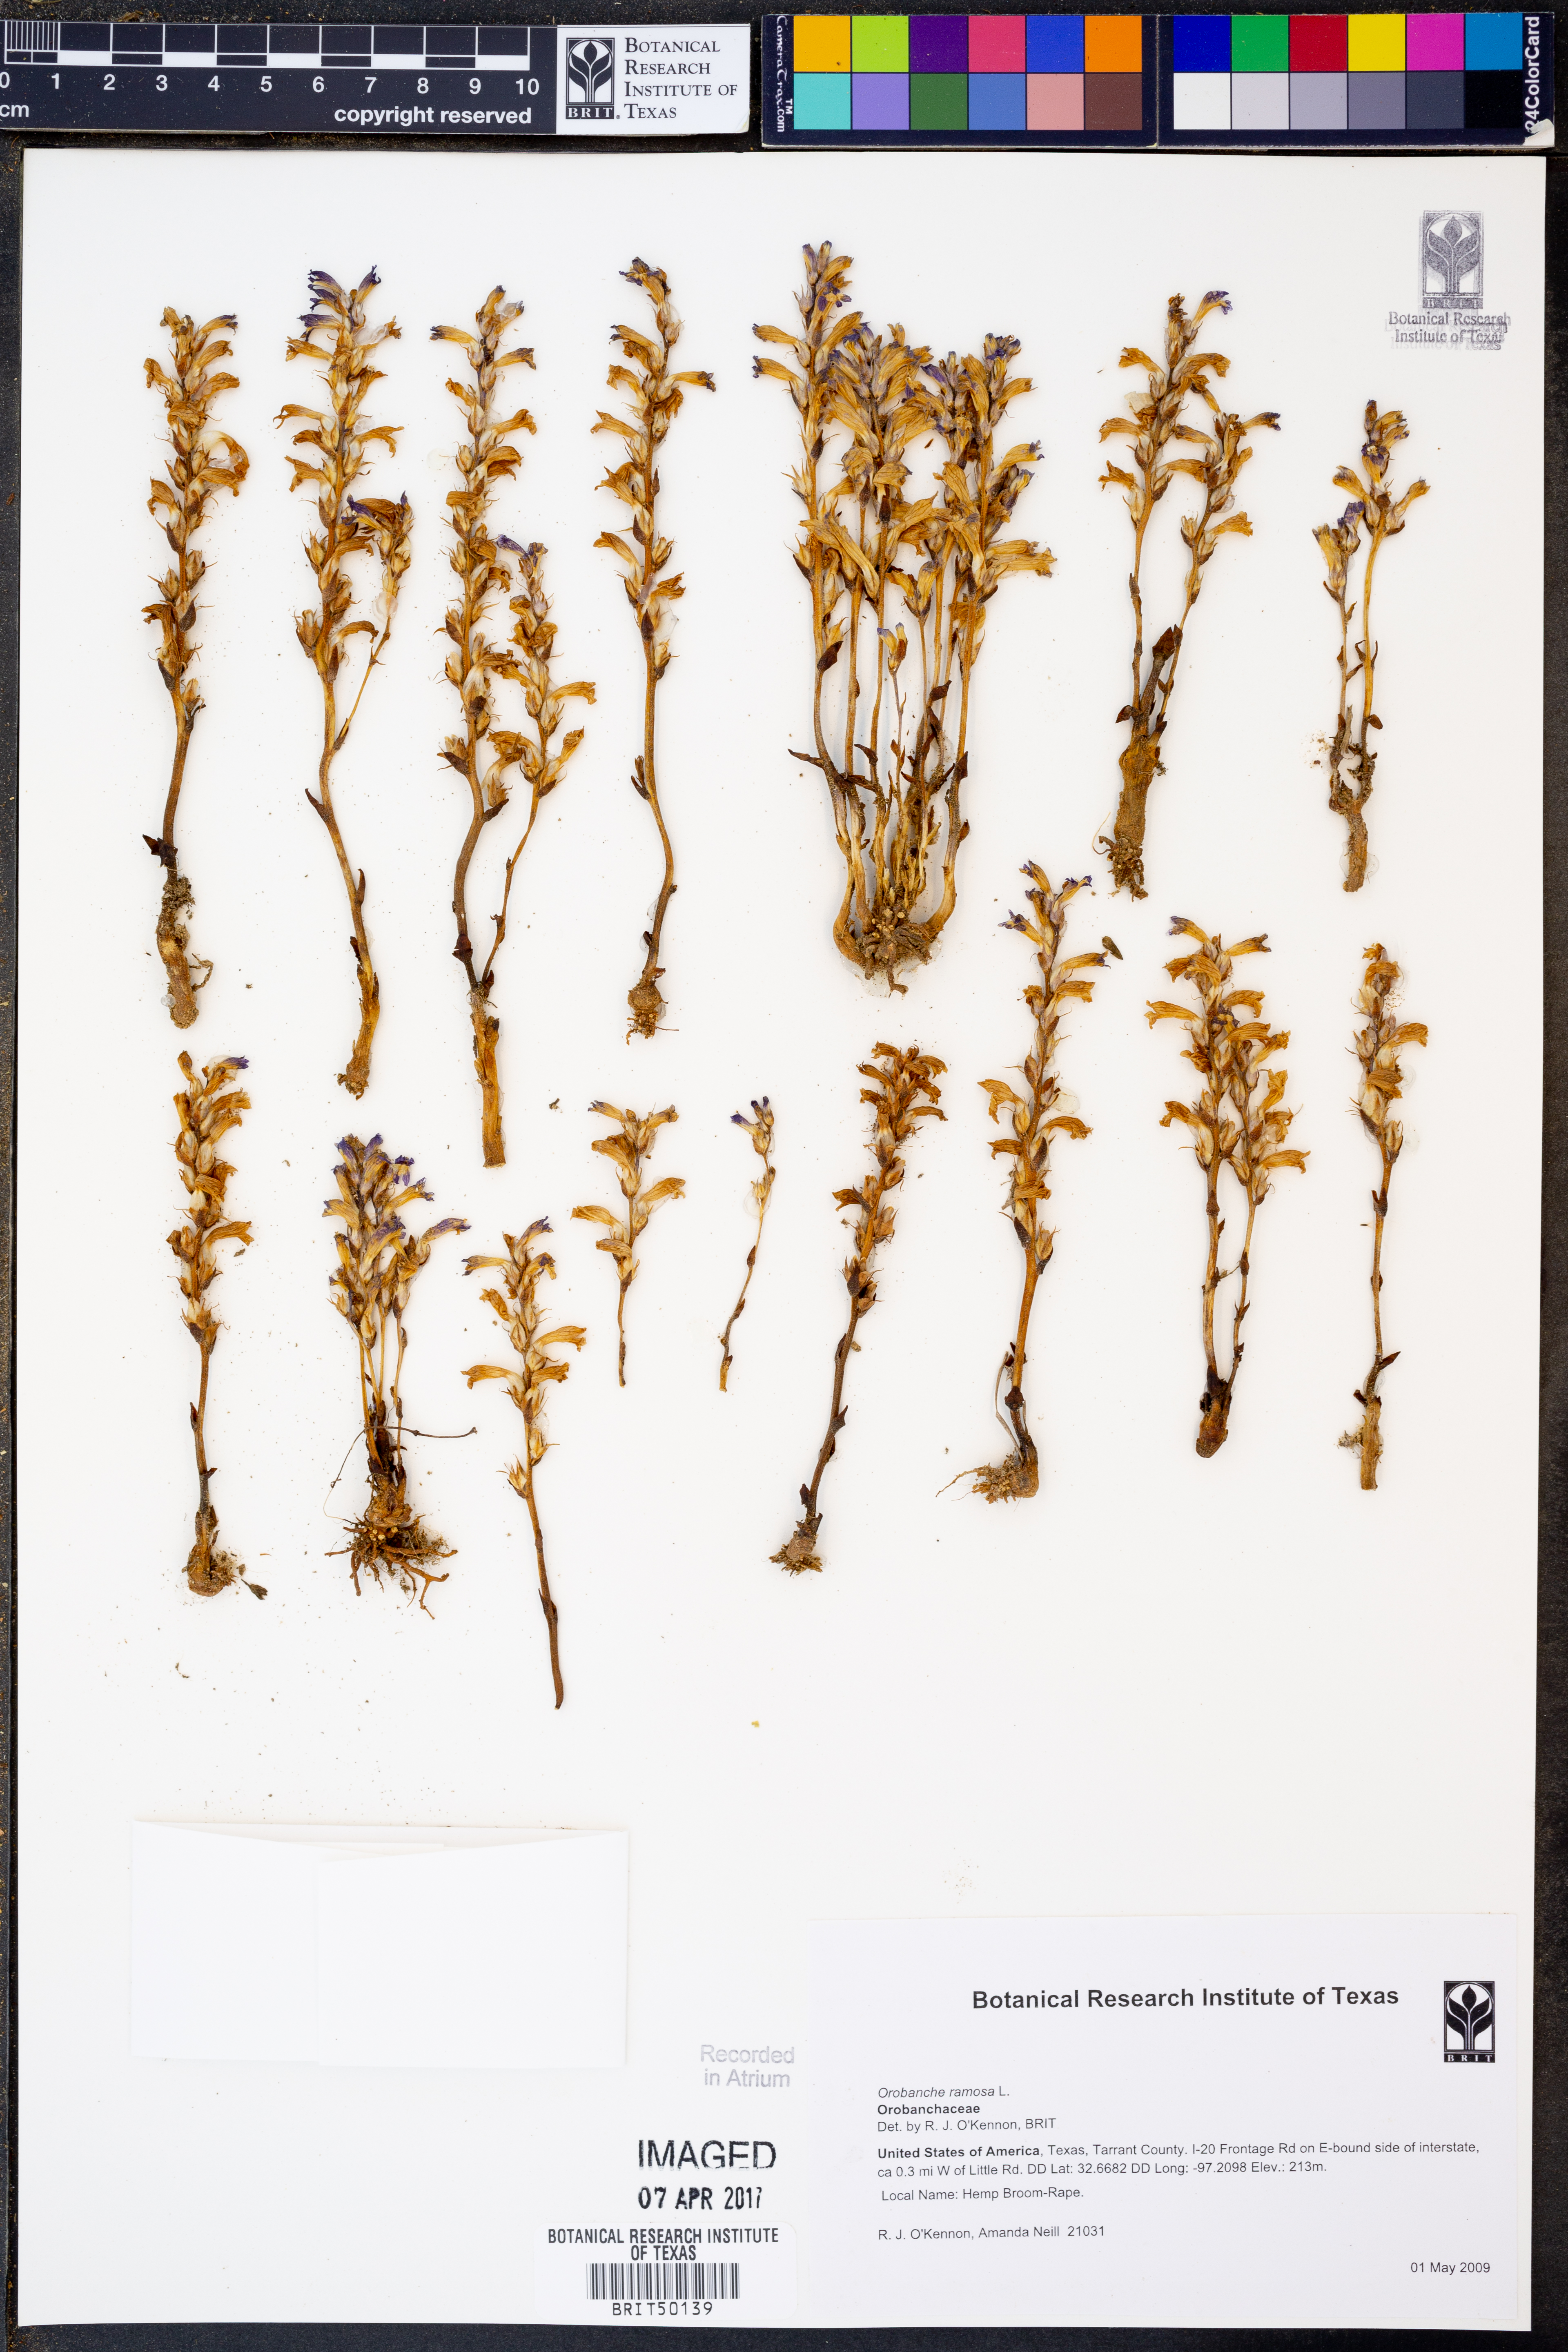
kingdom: Plantae
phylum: Tracheophyta
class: Magnoliopsida
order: Lamiales
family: Orobanchaceae
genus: Phelipanche
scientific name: Phelipanche ramosa
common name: Branched broomrape
